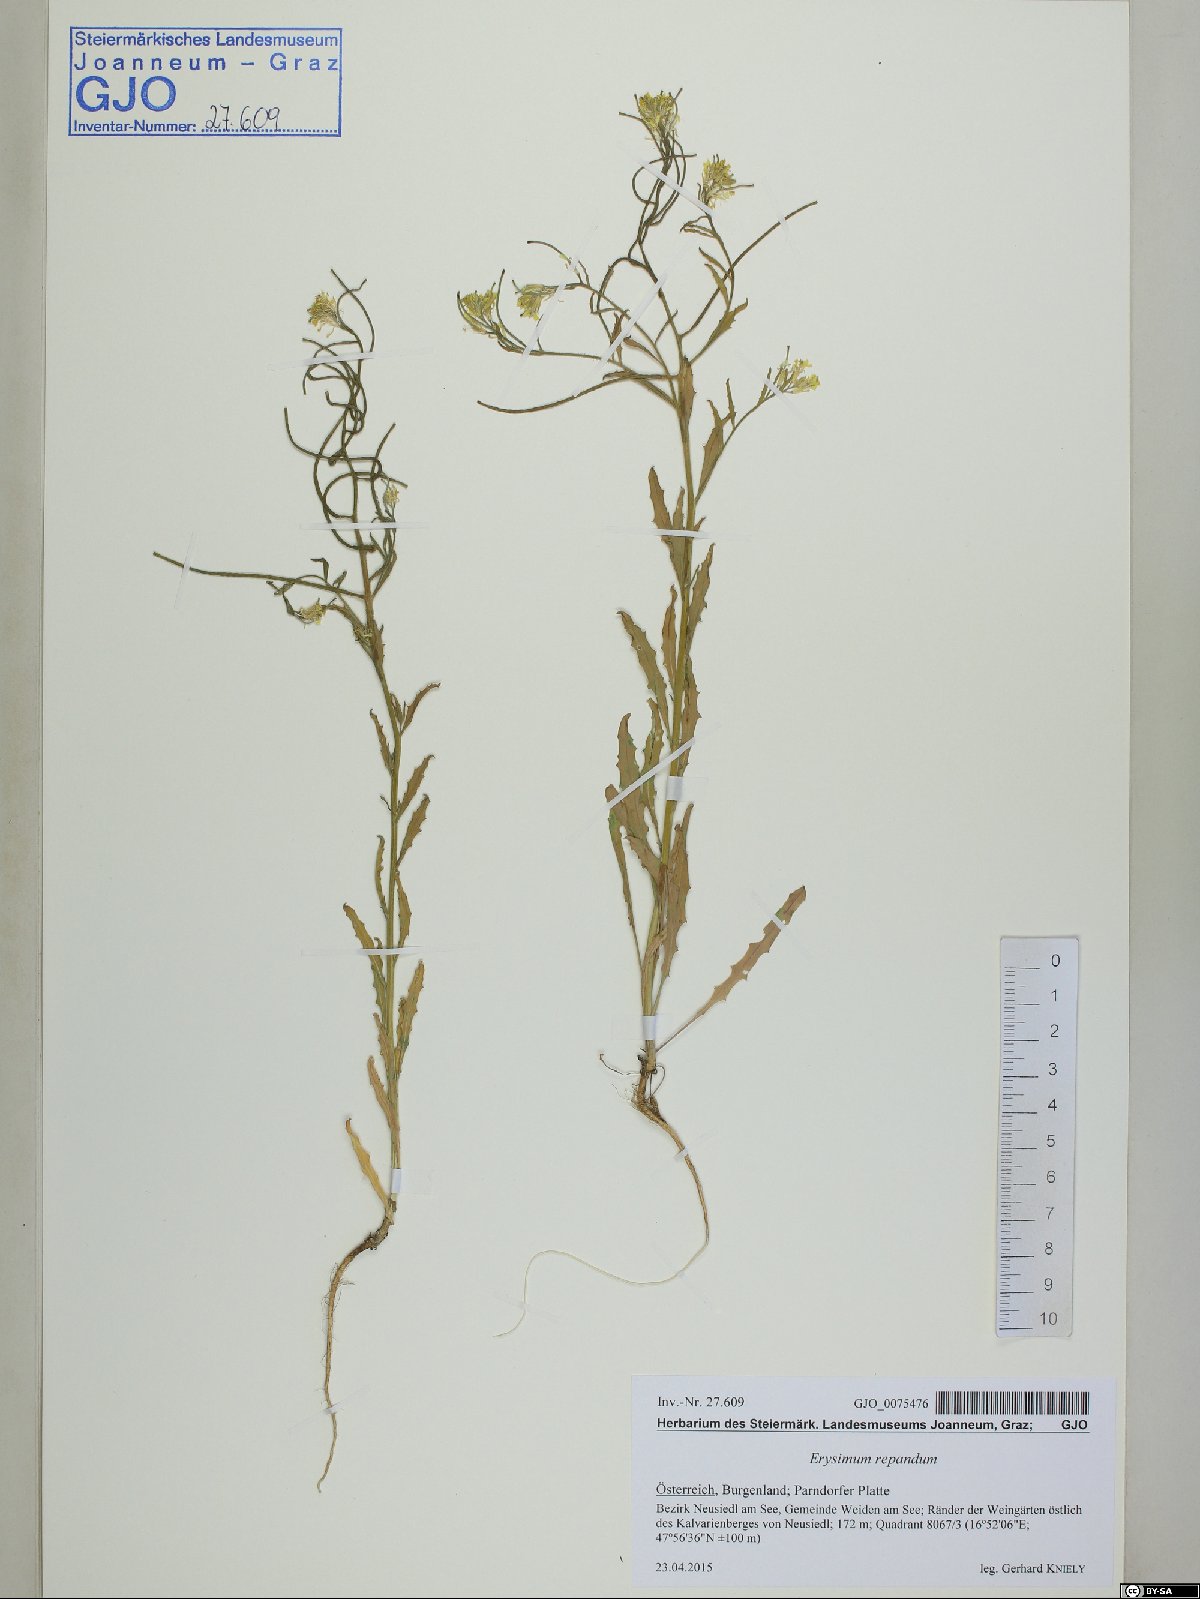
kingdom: Plantae
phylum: Tracheophyta
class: Magnoliopsida
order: Brassicales
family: Brassicaceae
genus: Erysimum
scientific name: Erysimum repandum
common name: Spreading wallflower
